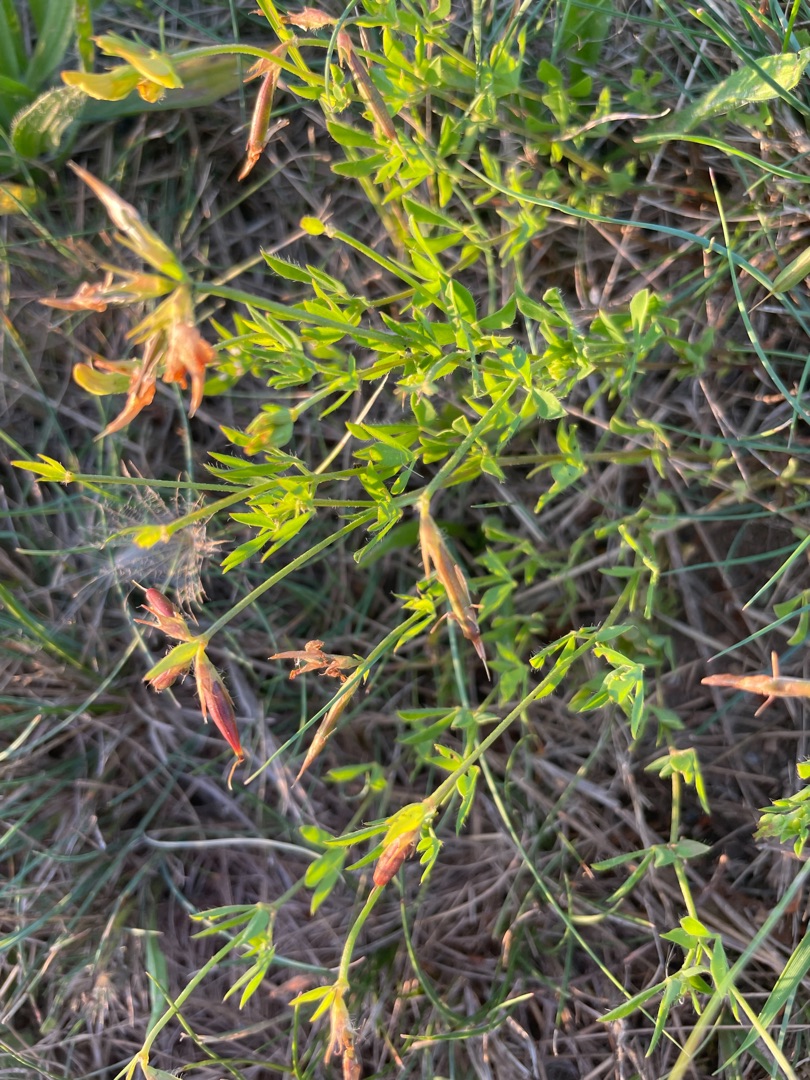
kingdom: Plantae
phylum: Tracheophyta
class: Magnoliopsida
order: Fabales
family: Fabaceae
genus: Lotus
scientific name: Lotus corniculatus
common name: Almindelig kællingetand
